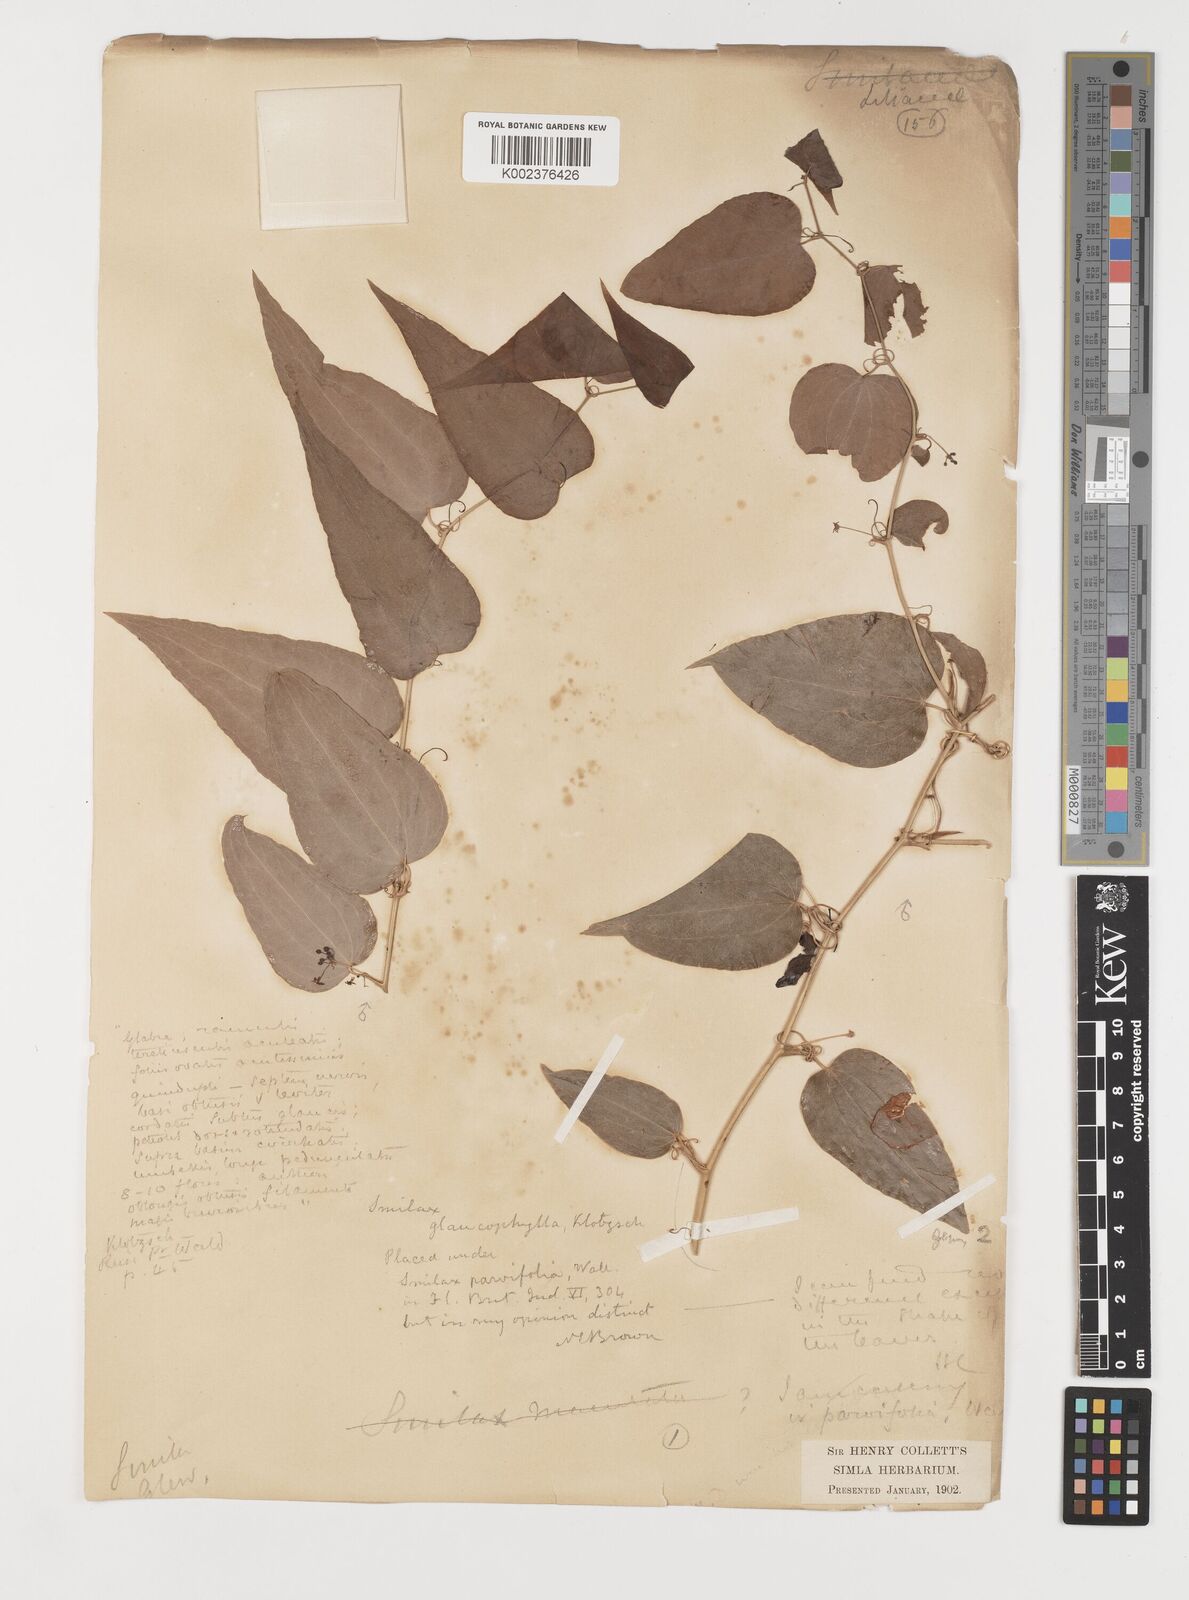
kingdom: Plantae
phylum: Tracheophyta
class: Liliopsida
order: Liliales
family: Smilacaceae
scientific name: Smilacaceae
